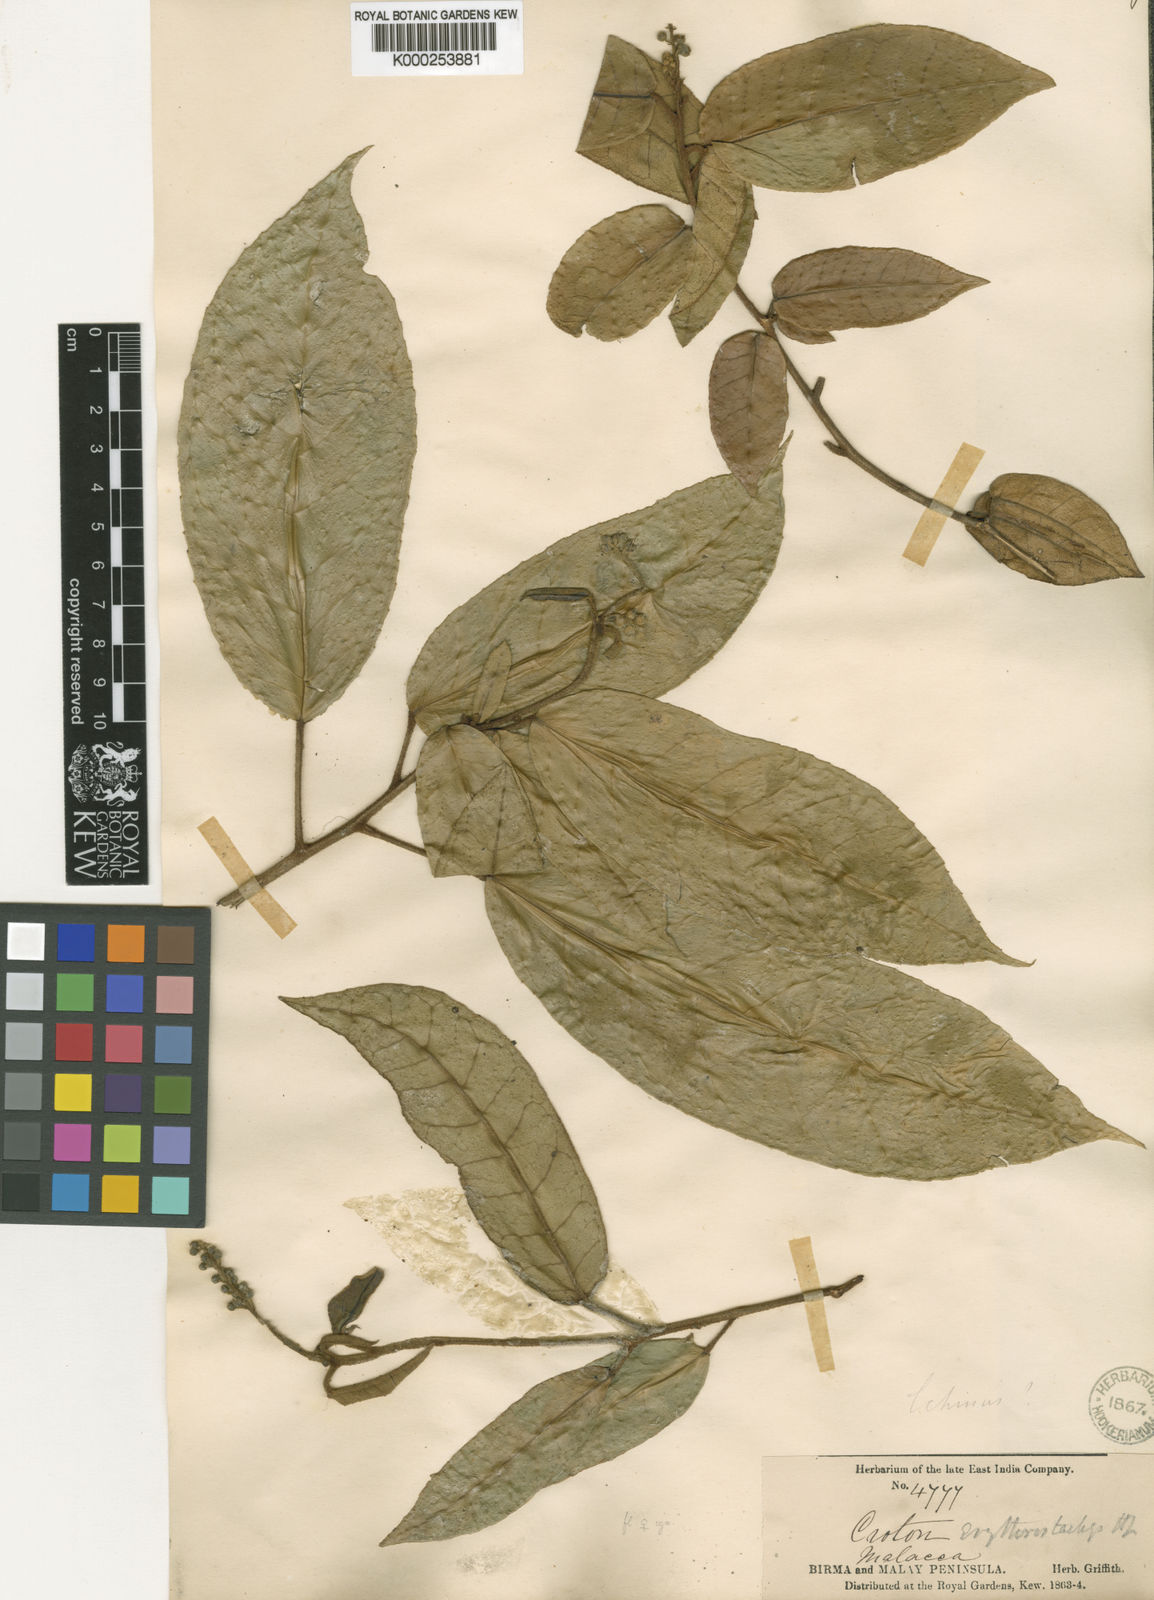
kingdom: Plantae
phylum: Tracheophyta
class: Magnoliopsida
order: Malpighiales
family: Euphorbiaceae
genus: Croton
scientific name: Croton erythrostachys
